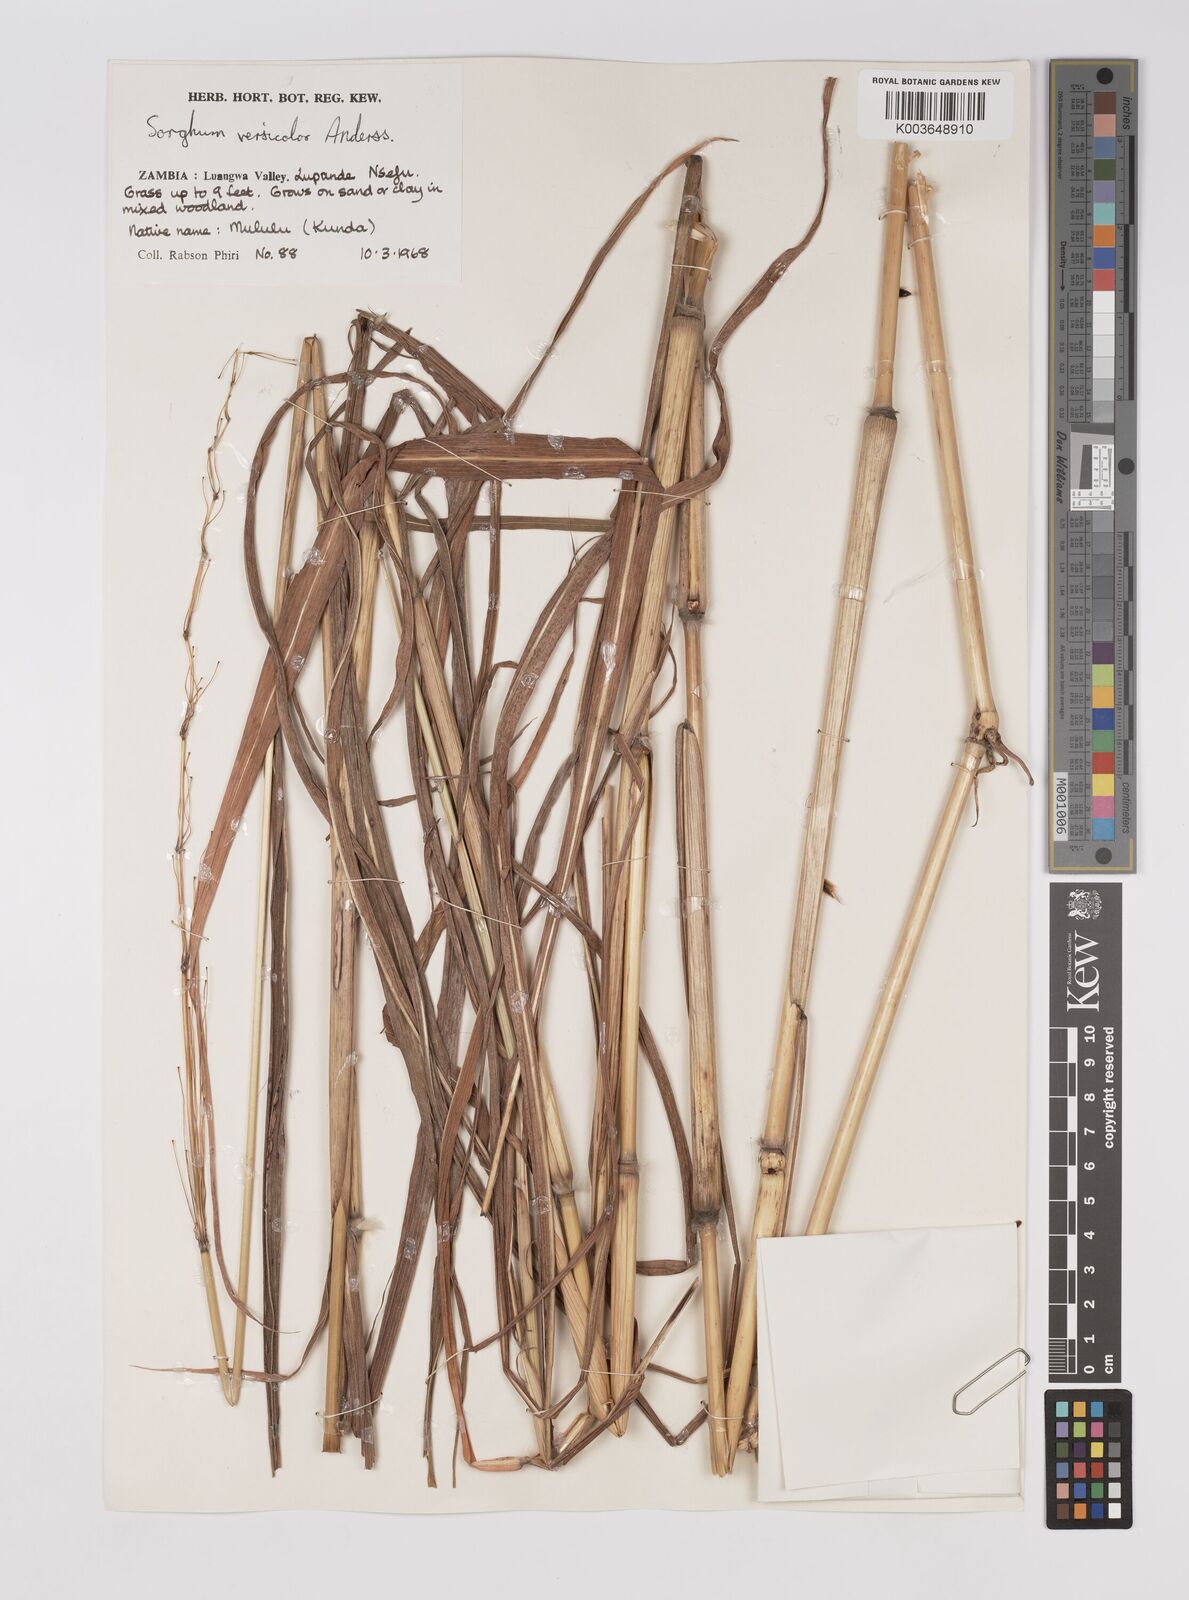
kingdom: Plantae
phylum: Tracheophyta
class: Liliopsida
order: Poales
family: Poaceae
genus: Sarga
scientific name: Sarga versicolor
